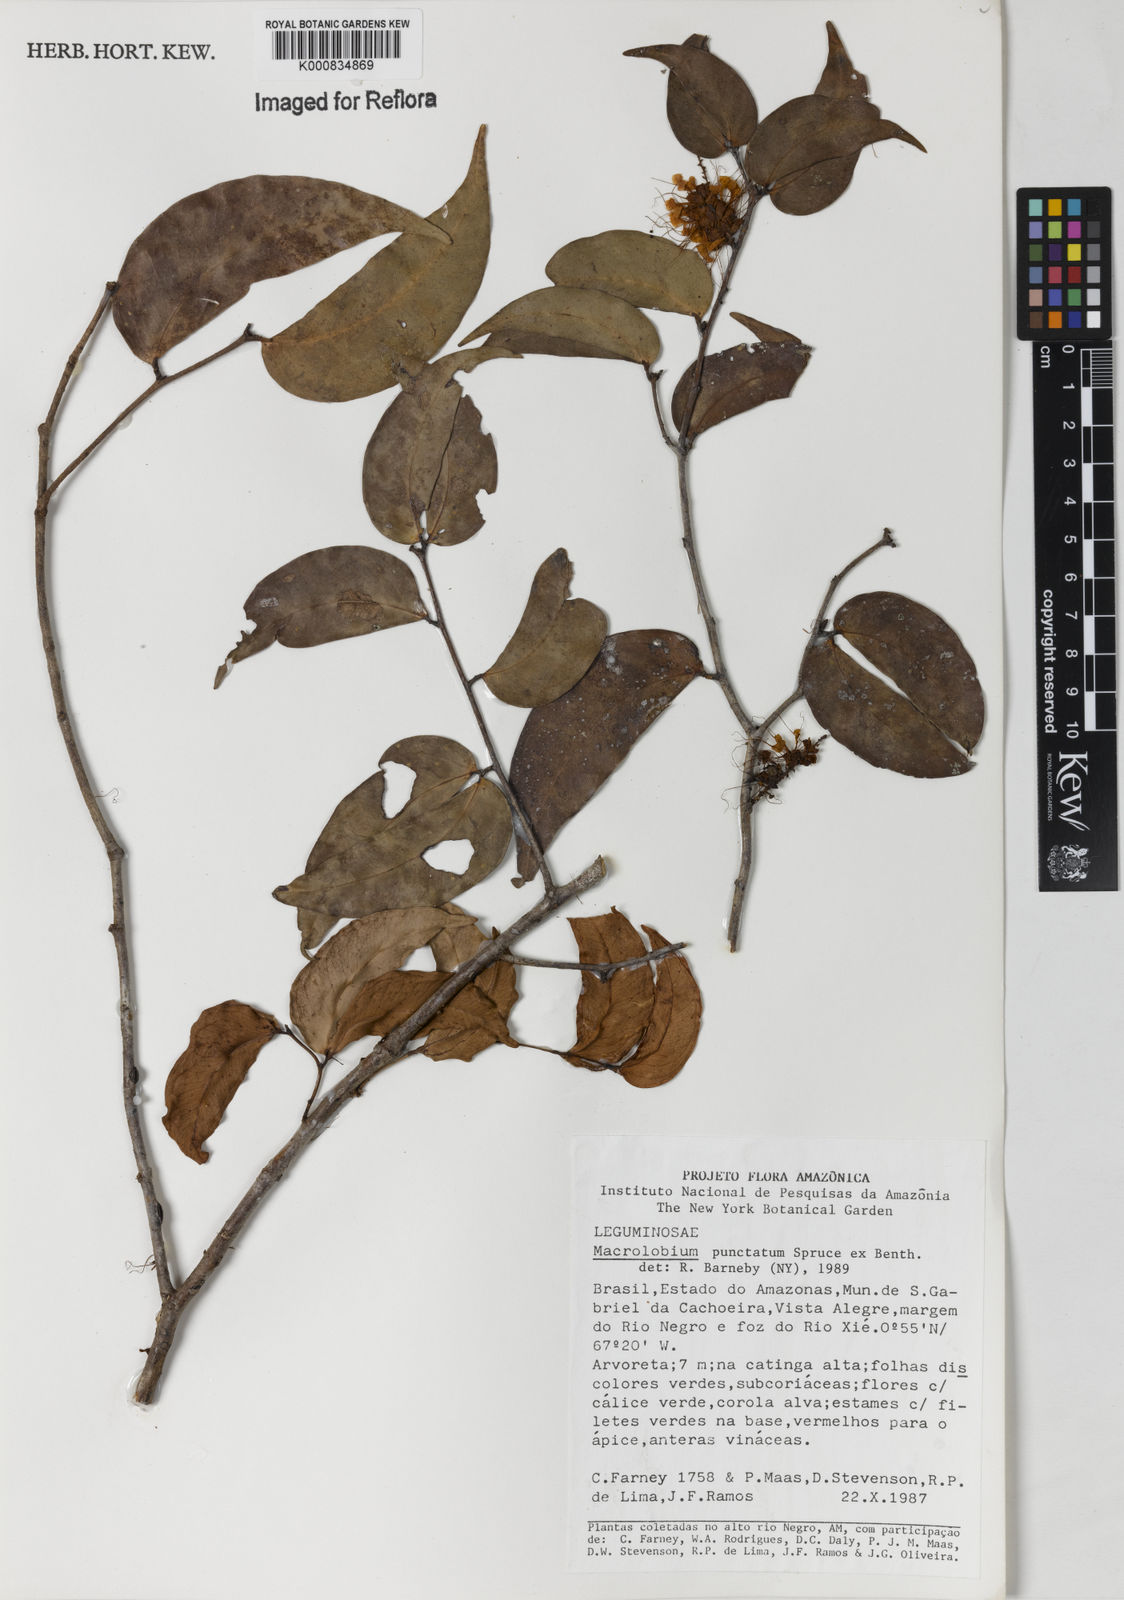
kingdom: Plantae
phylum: Tracheophyta
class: Magnoliopsida
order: Fabales
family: Fabaceae
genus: Macrolobium
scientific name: Macrolobium punctatum
